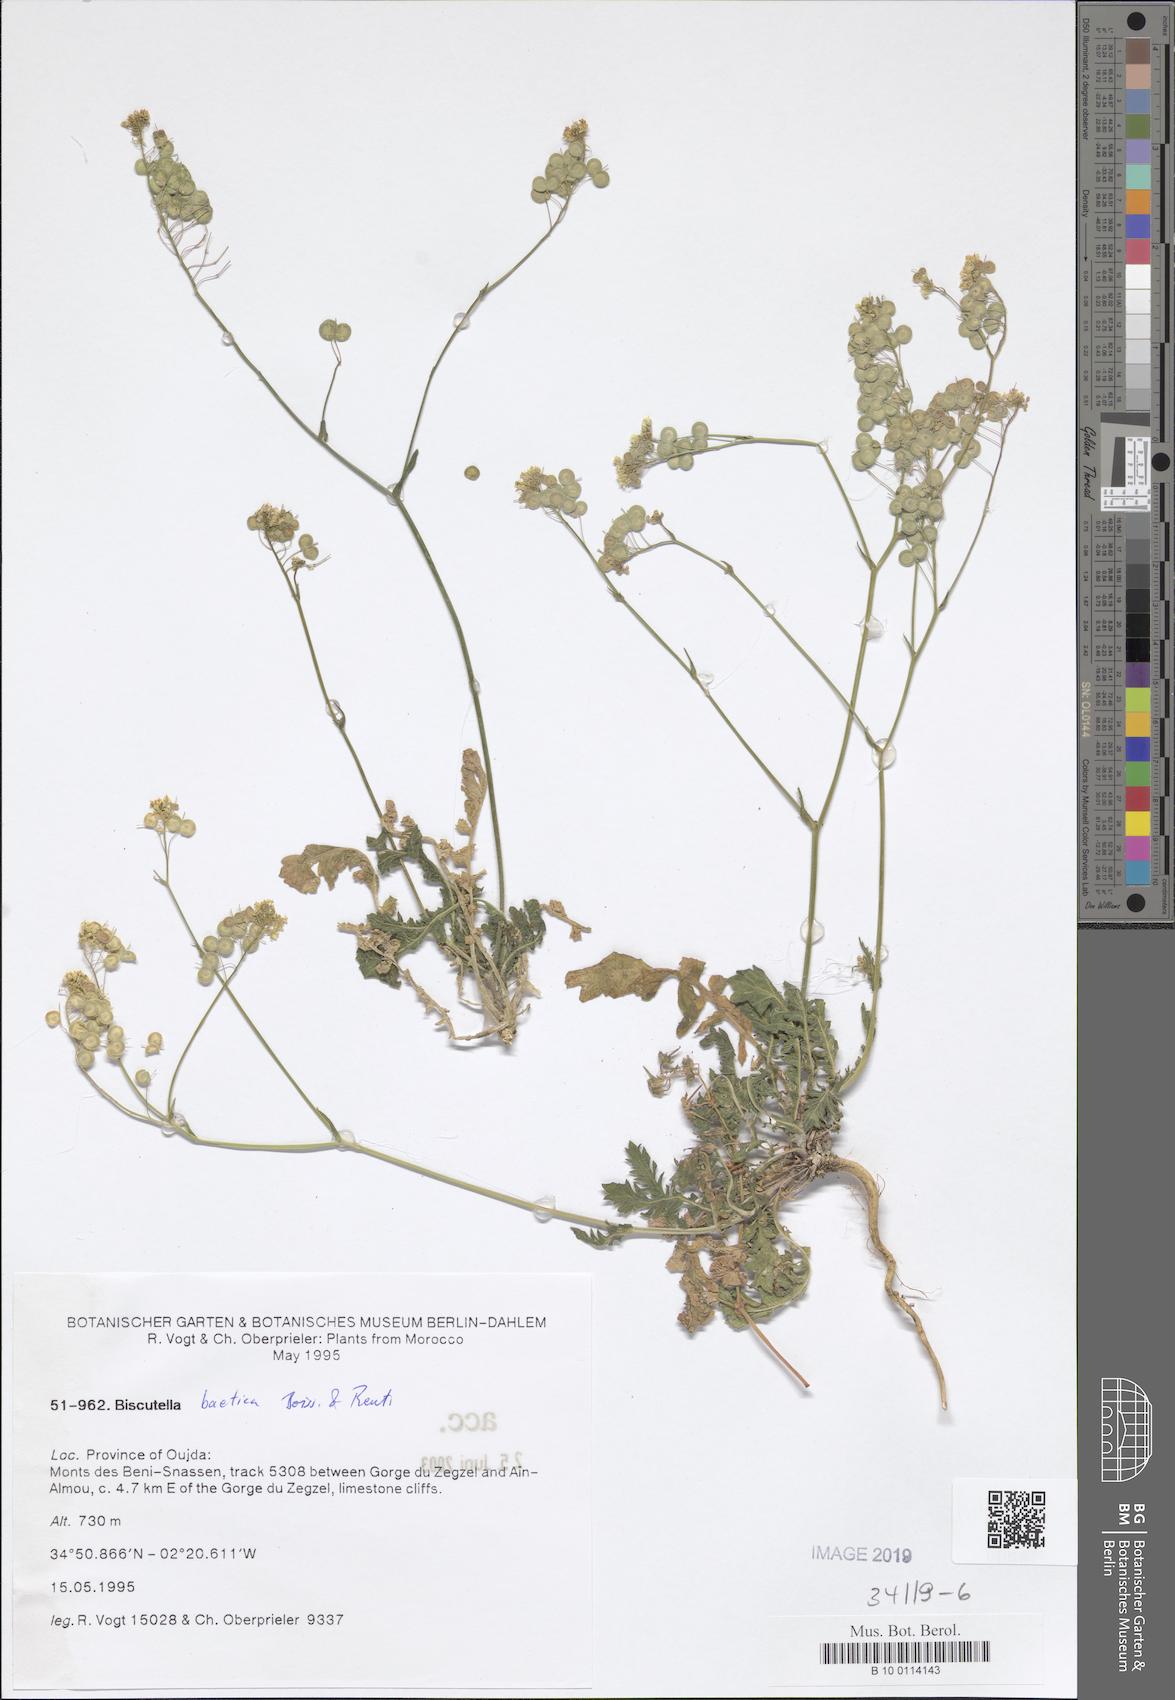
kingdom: Plantae
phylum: Tracheophyta
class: Magnoliopsida
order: Brassicales
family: Brassicaceae
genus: Biscutella
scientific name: Biscutella eriocarpa
